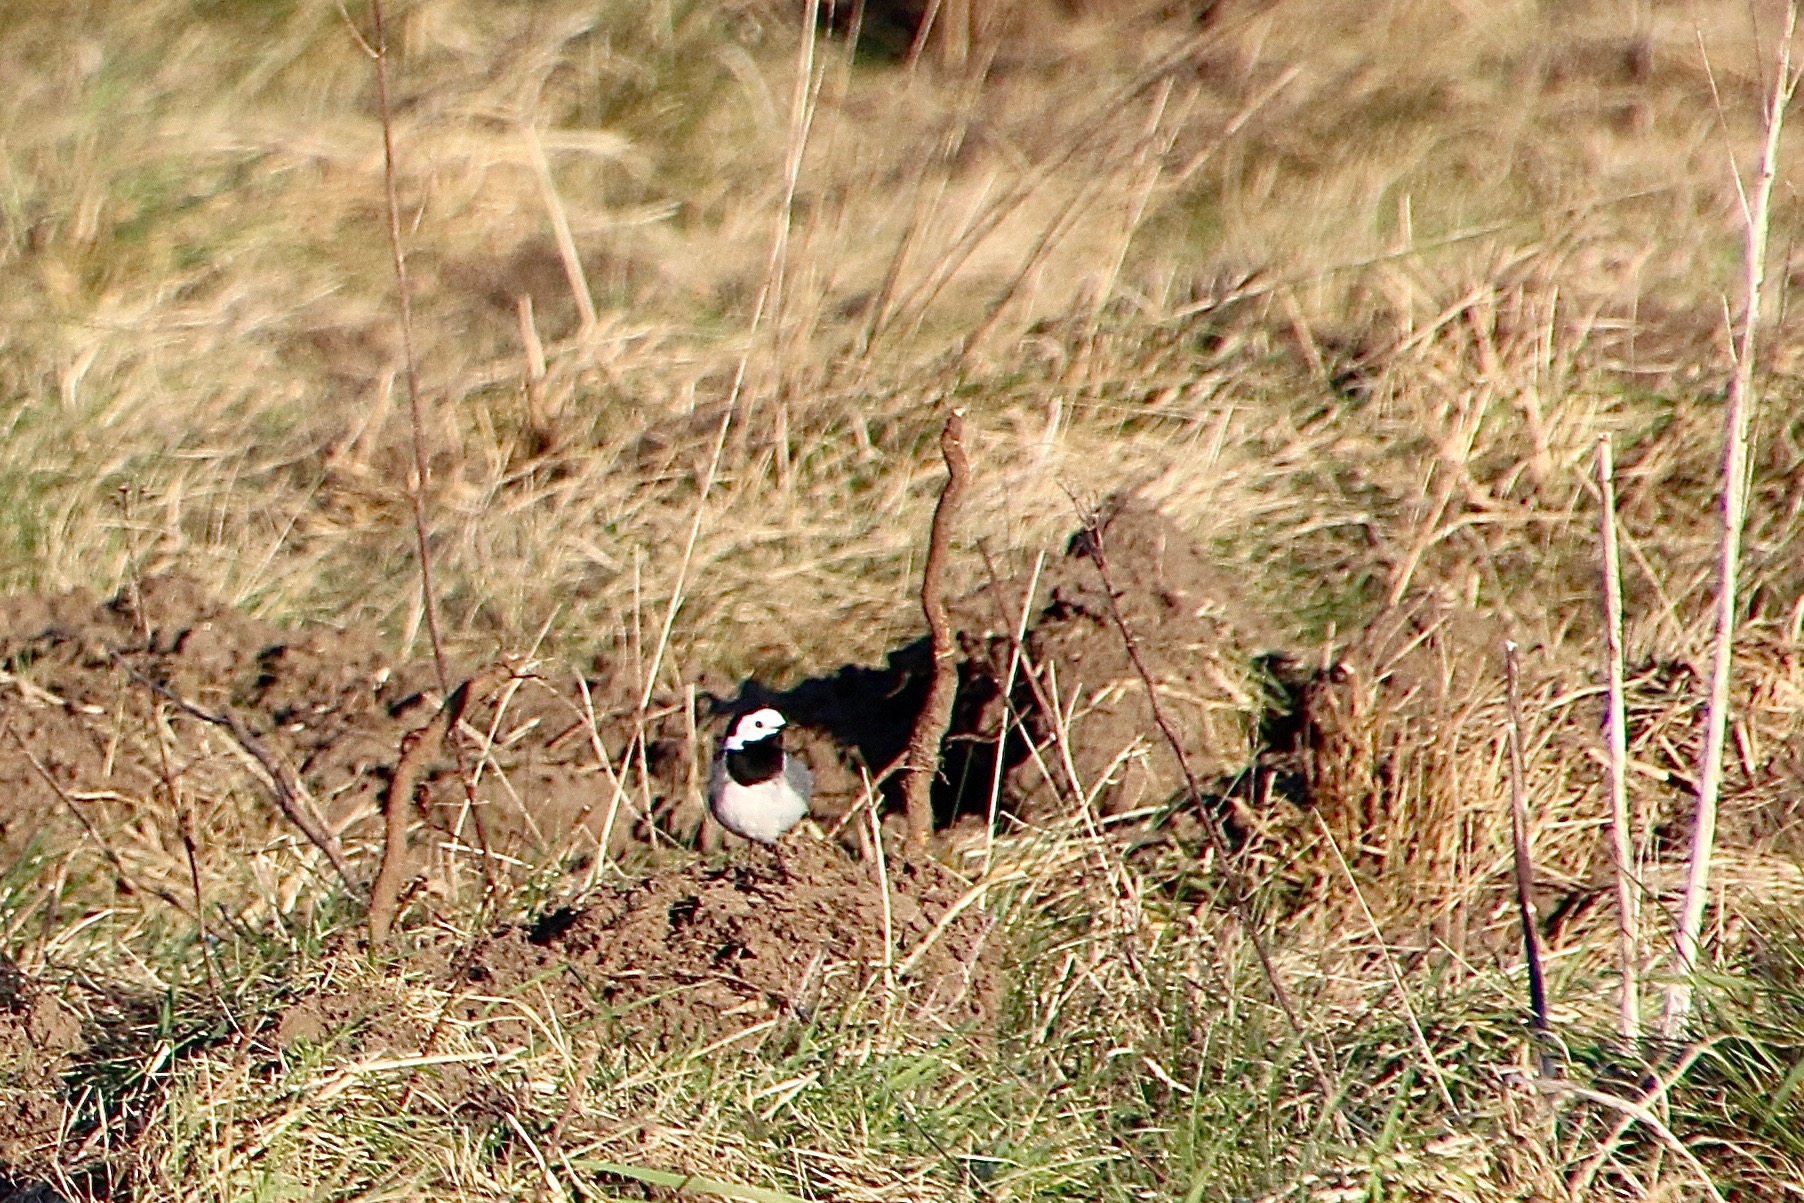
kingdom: Animalia
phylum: Chordata
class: Aves
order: Passeriformes
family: Motacillidae
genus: Motacilla
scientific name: Motacilla alba
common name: Hvid vipstjert
